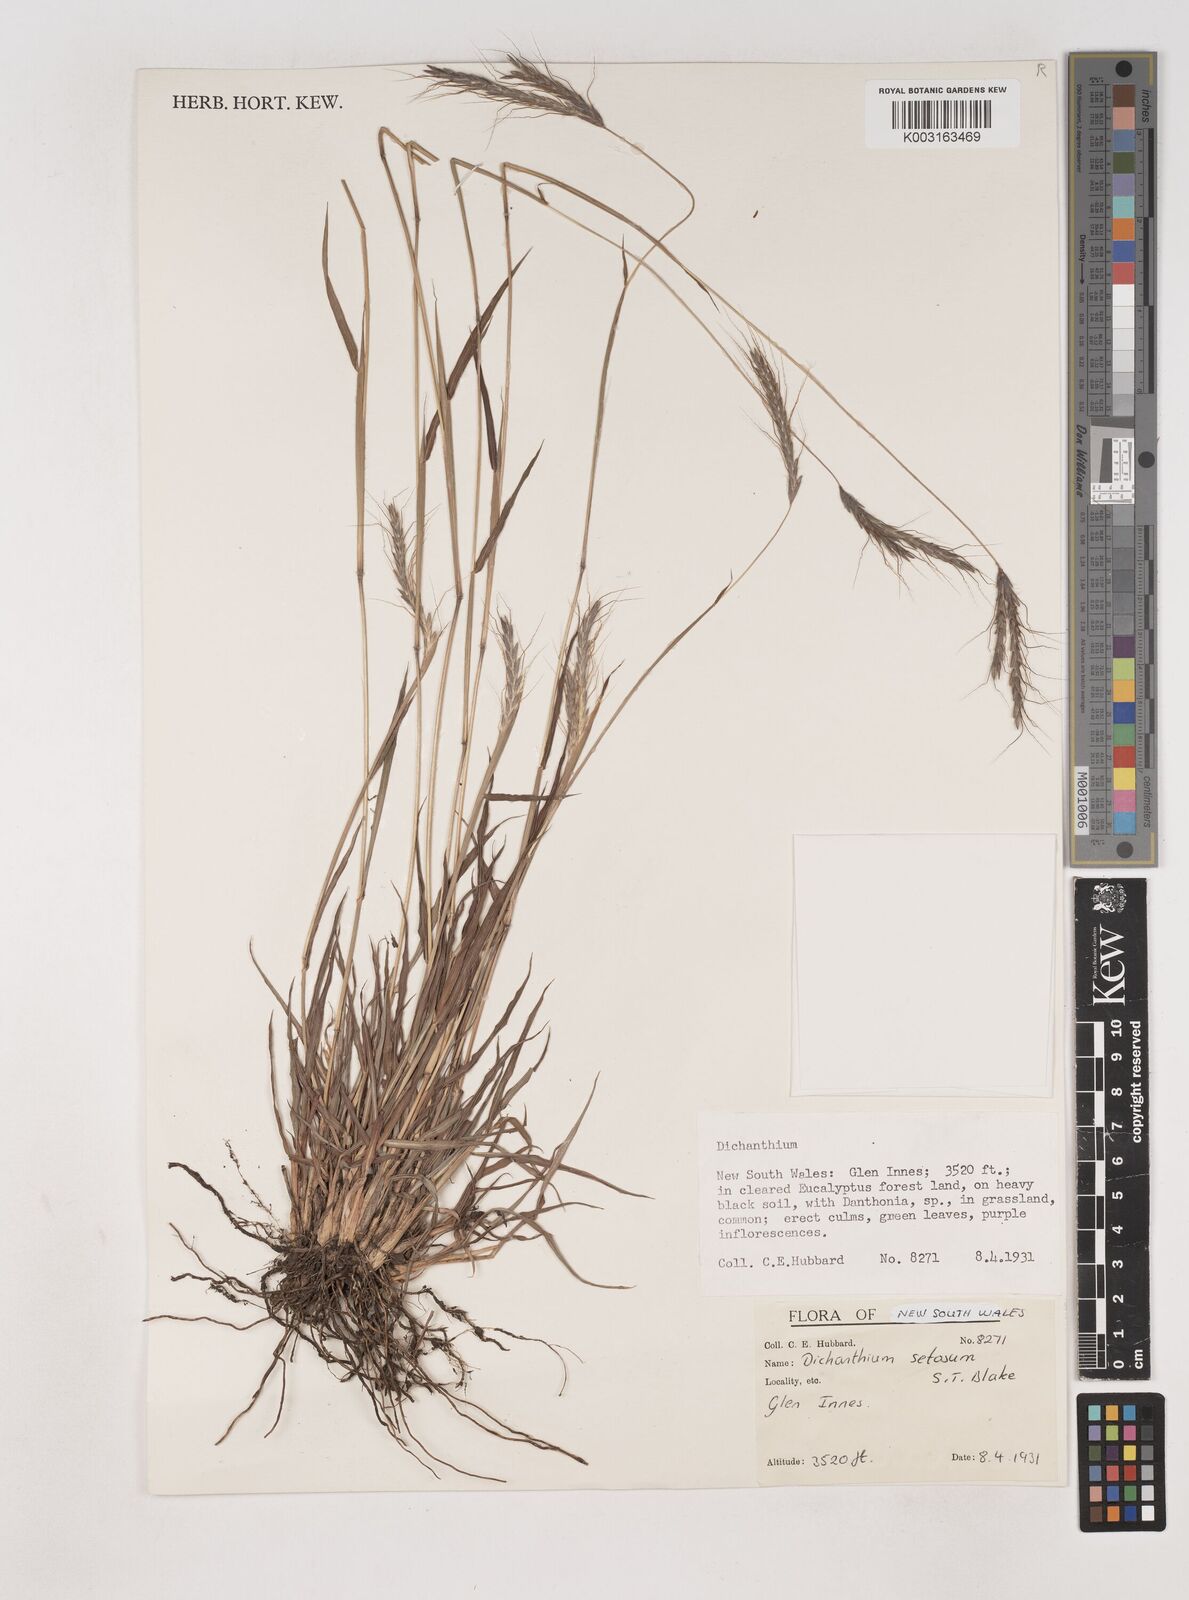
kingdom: Plantae
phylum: Tracheophyta
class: Liliopsida
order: Poales
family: Poaceae
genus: Dichanthium
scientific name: Dichanthium setosum
